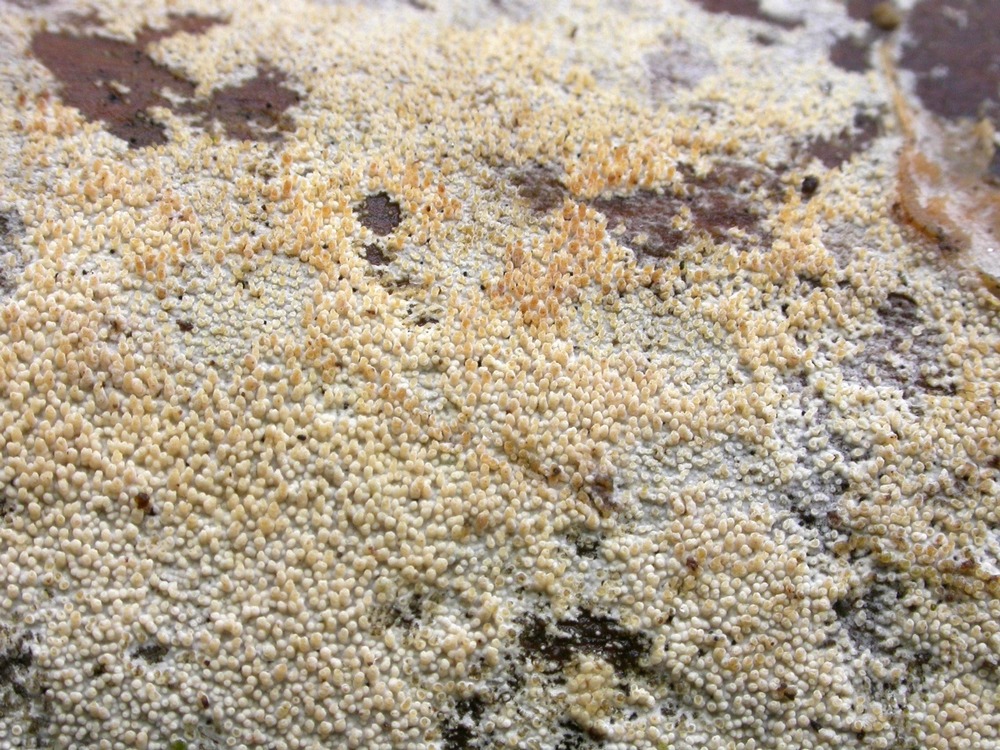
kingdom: Fungi
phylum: Basidiomycota
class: Agaricomycetes
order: Hymenochaetales
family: Hyphodontiaceae
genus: Hyphodontia
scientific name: Hyphodontia arguta
